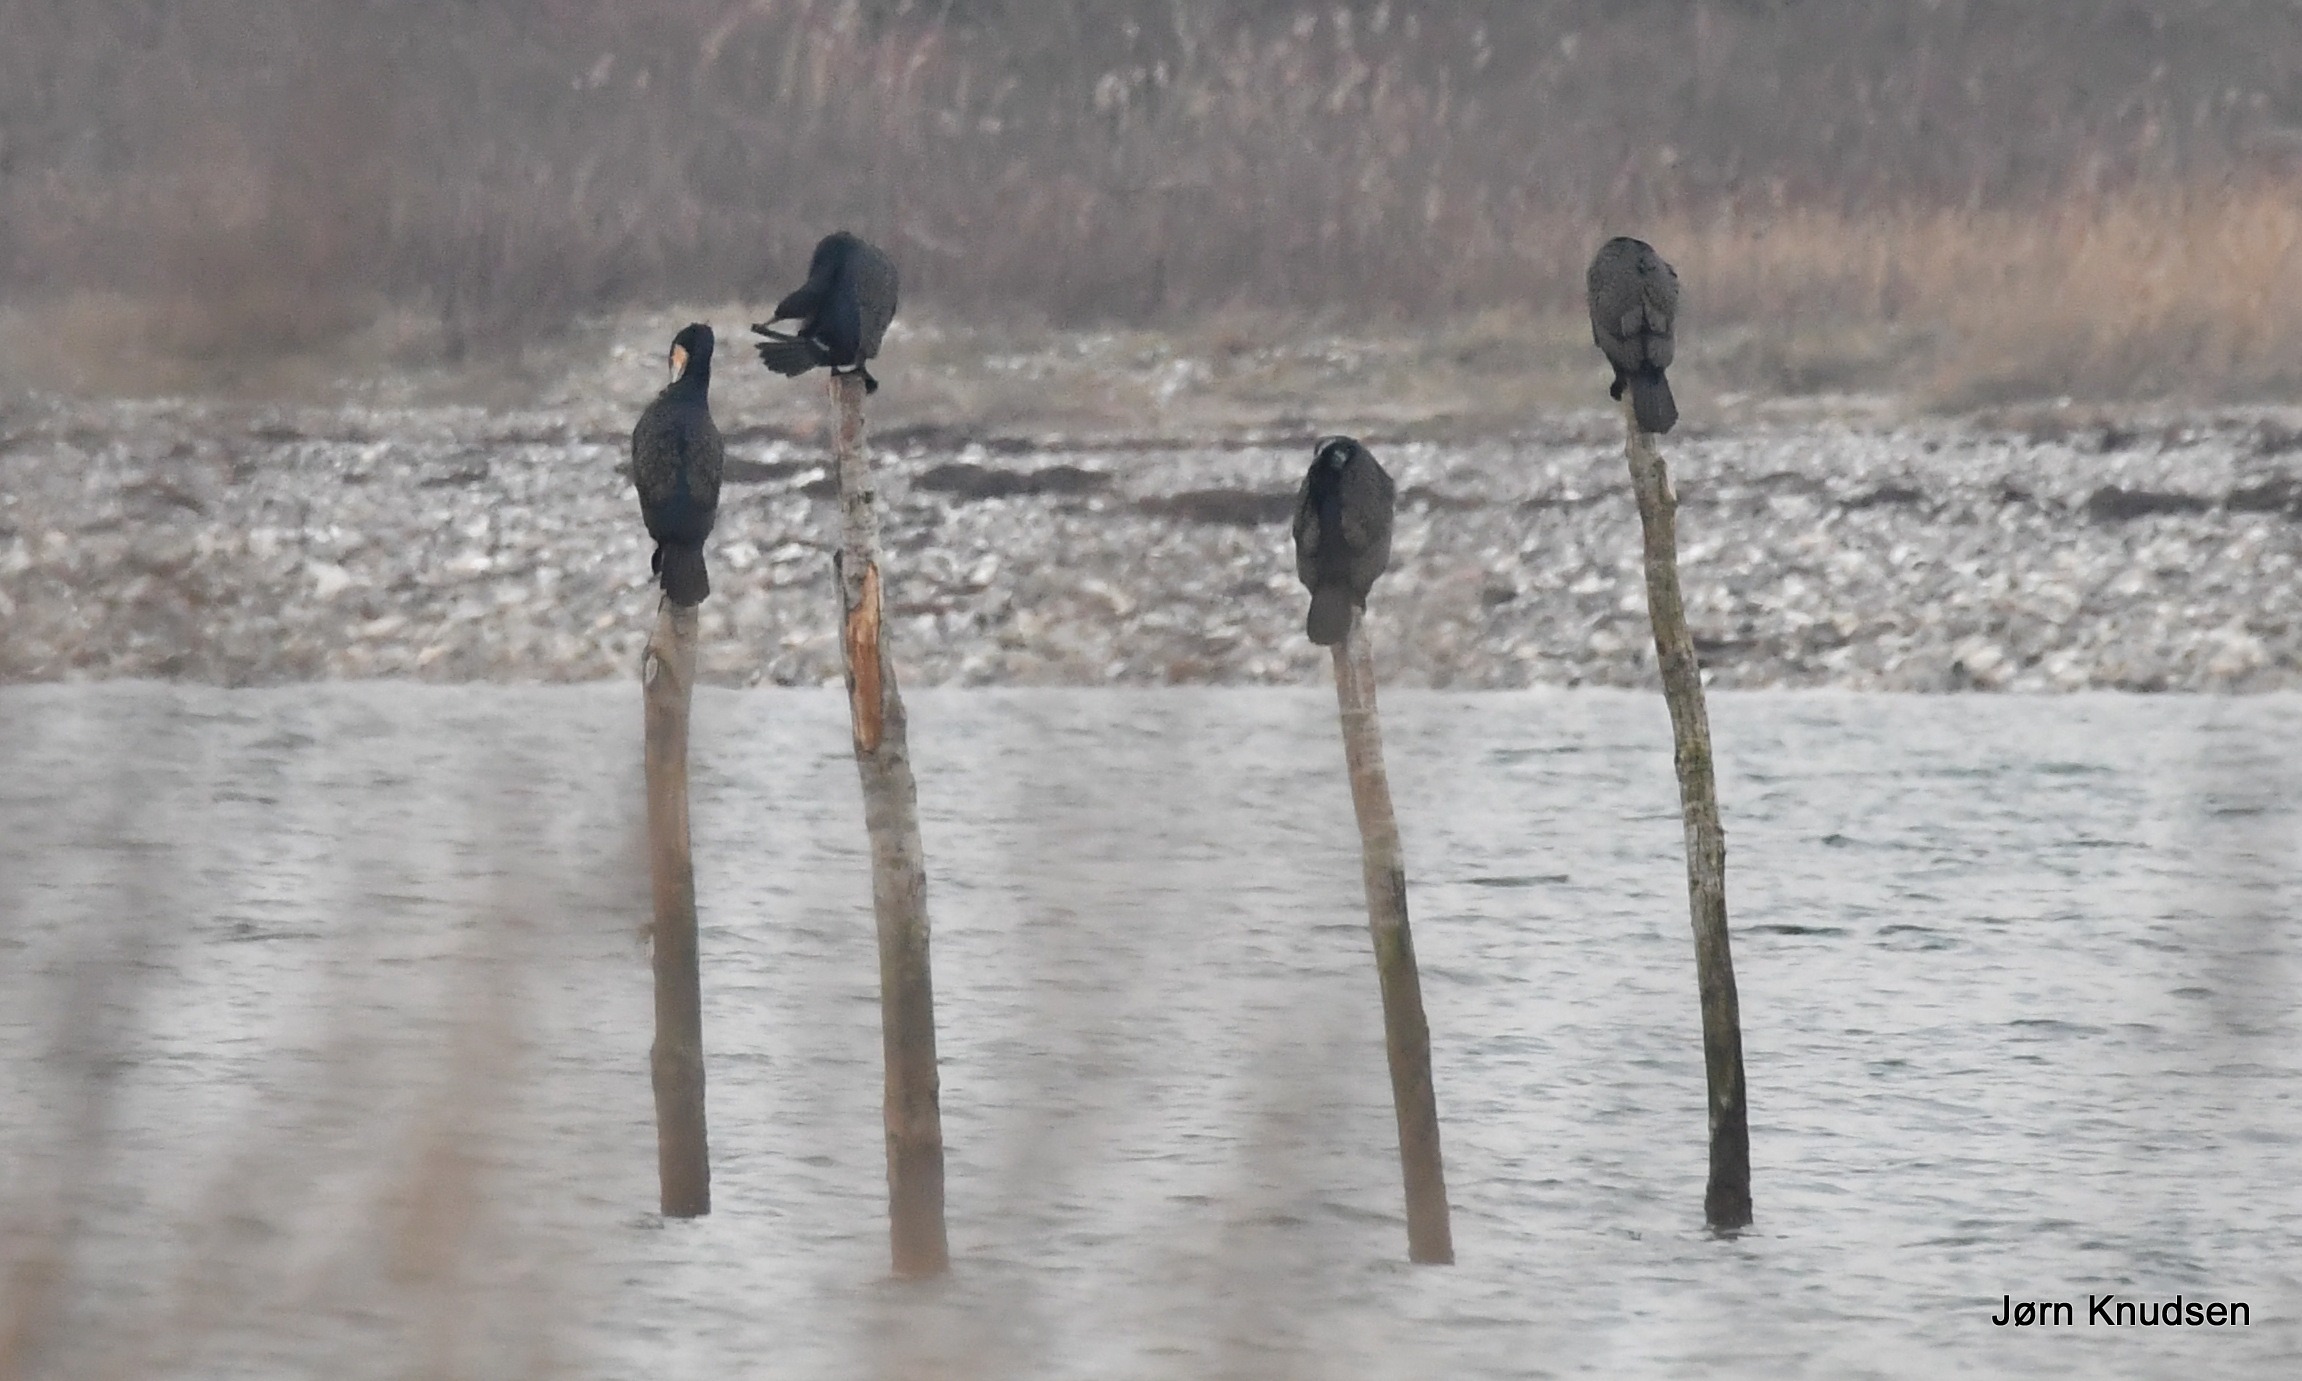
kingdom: Animalia
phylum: Chordata
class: Aves
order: Suliformes
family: Phalacrocoracidae
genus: Phalacrocorax
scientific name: Phalacrocorax carbo
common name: Skarv
